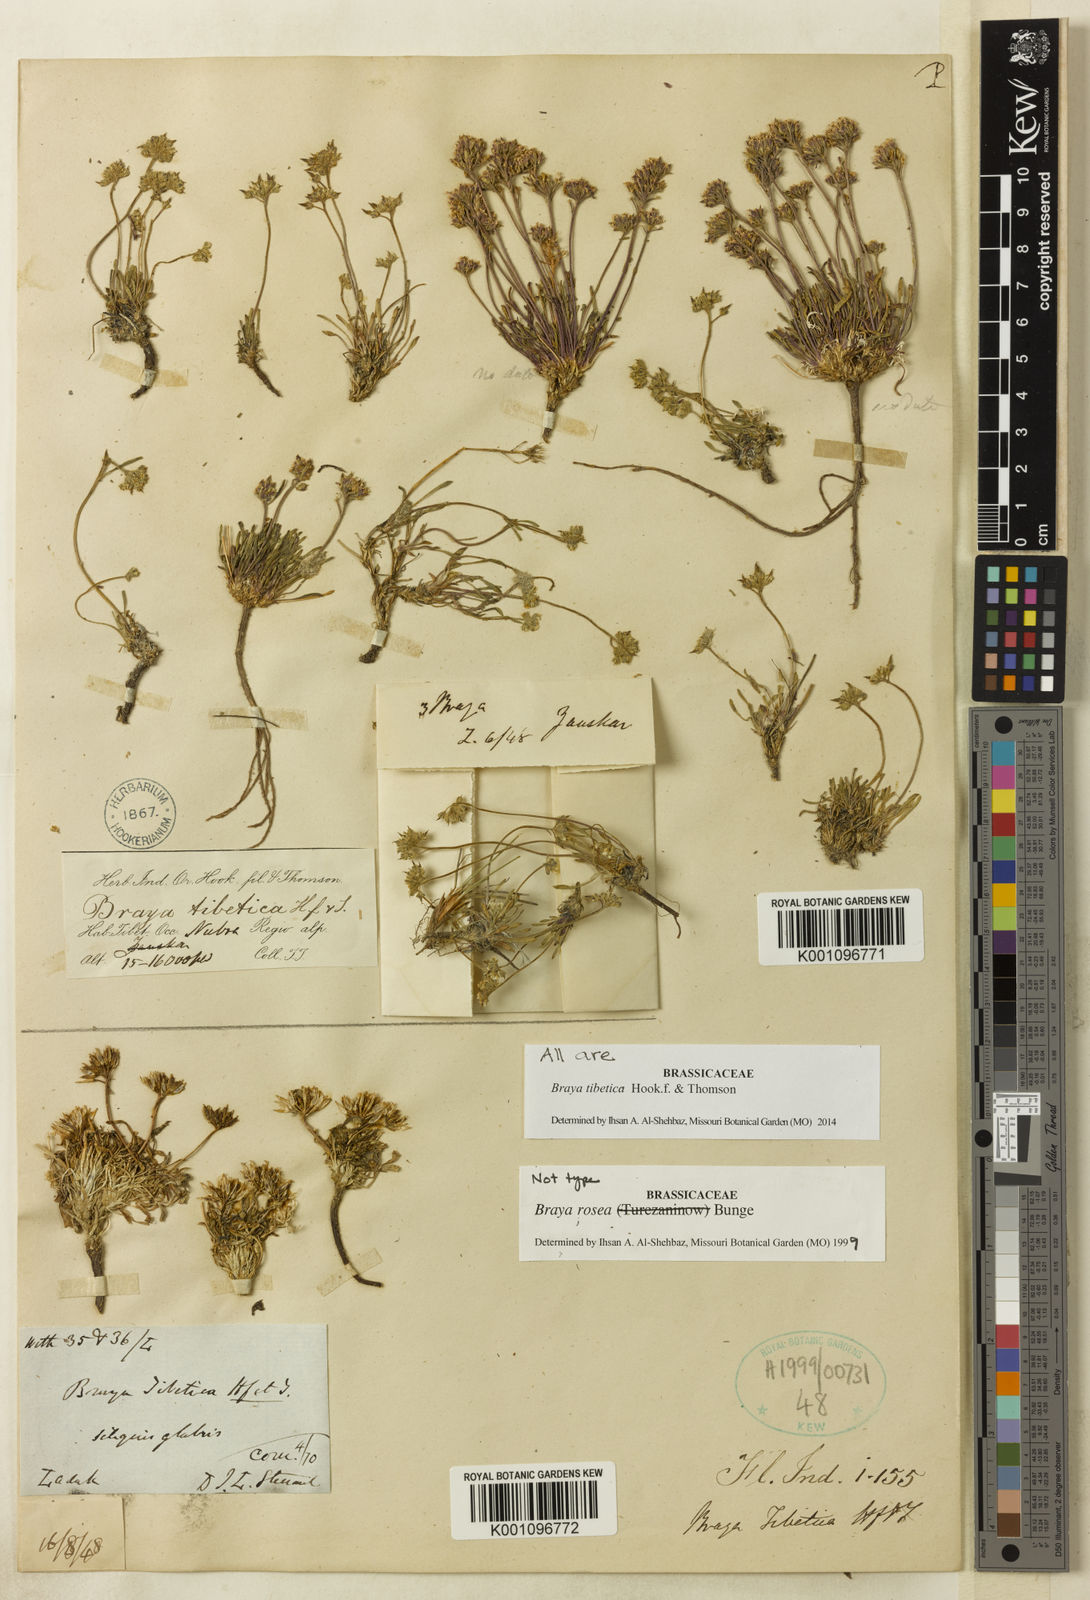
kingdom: Plantae
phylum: Tracheophyta
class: Magnoliopsida
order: Brassicales
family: Brassicaceae
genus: Braya
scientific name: Braya tibetica
